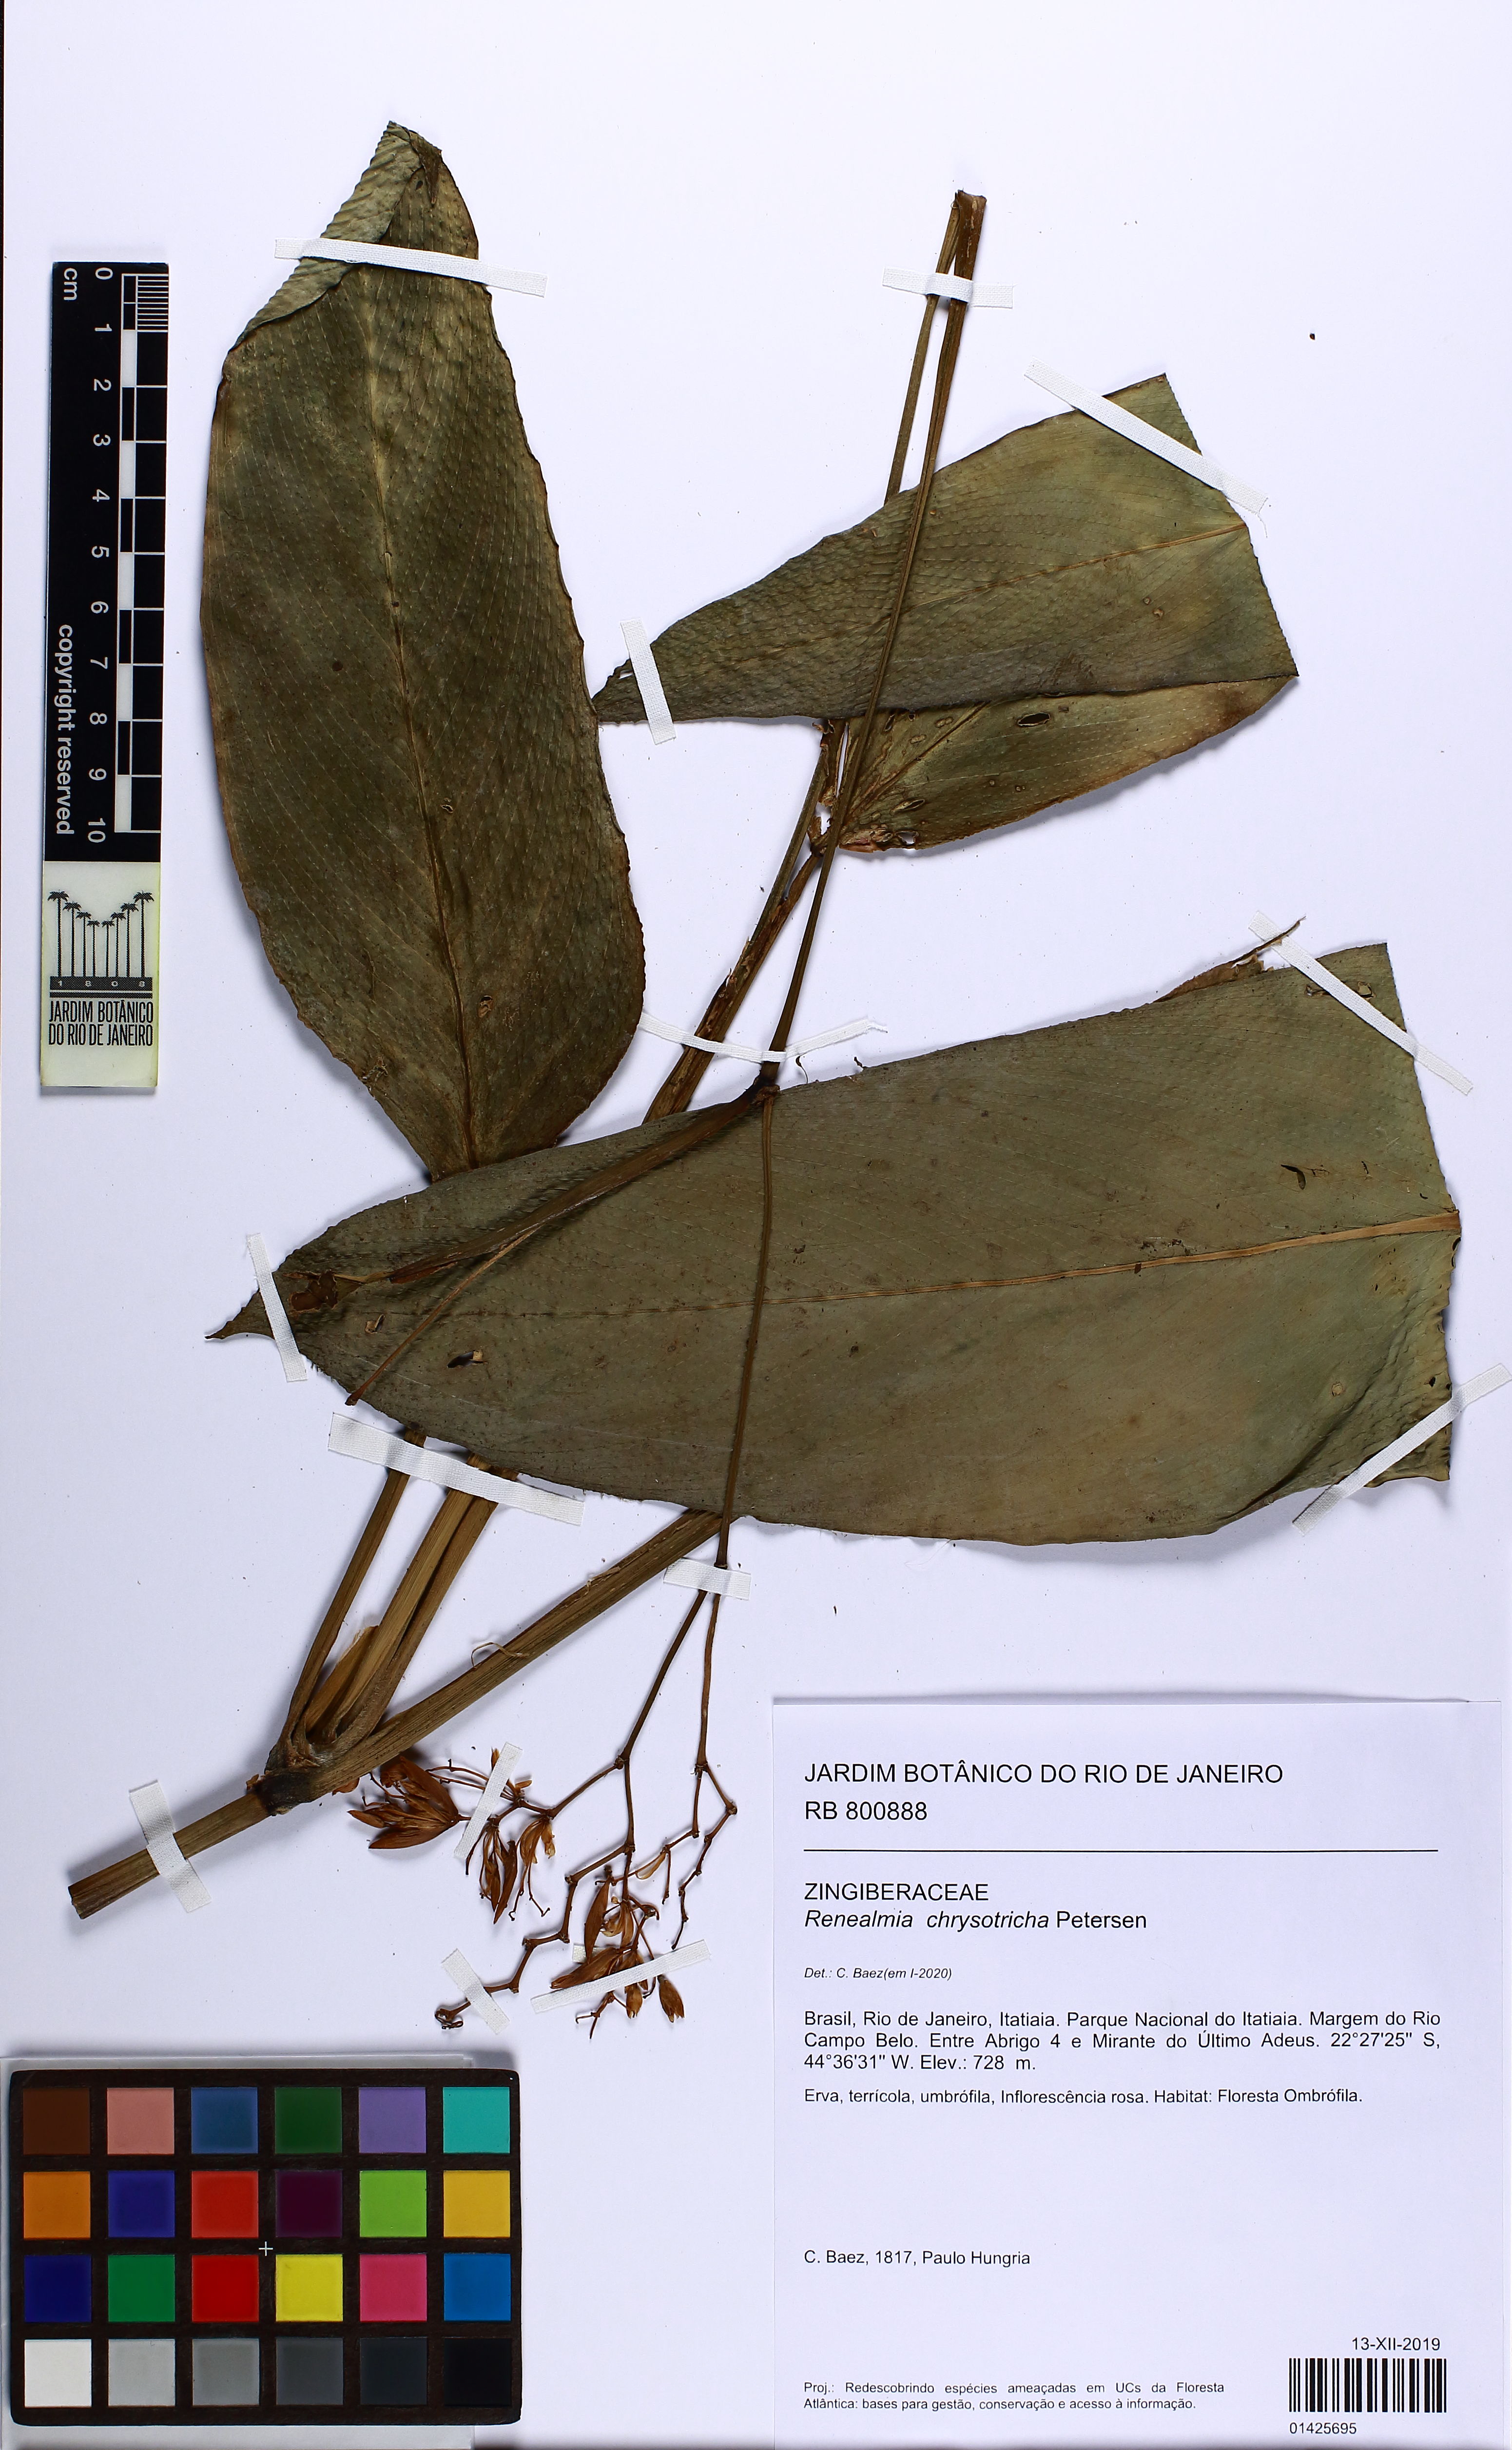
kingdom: Plantae
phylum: Tracheophyta
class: Liliopsida
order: Zingiberales
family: Zingiberaceae
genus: Renealmia
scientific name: Renealmia chrysotricha
